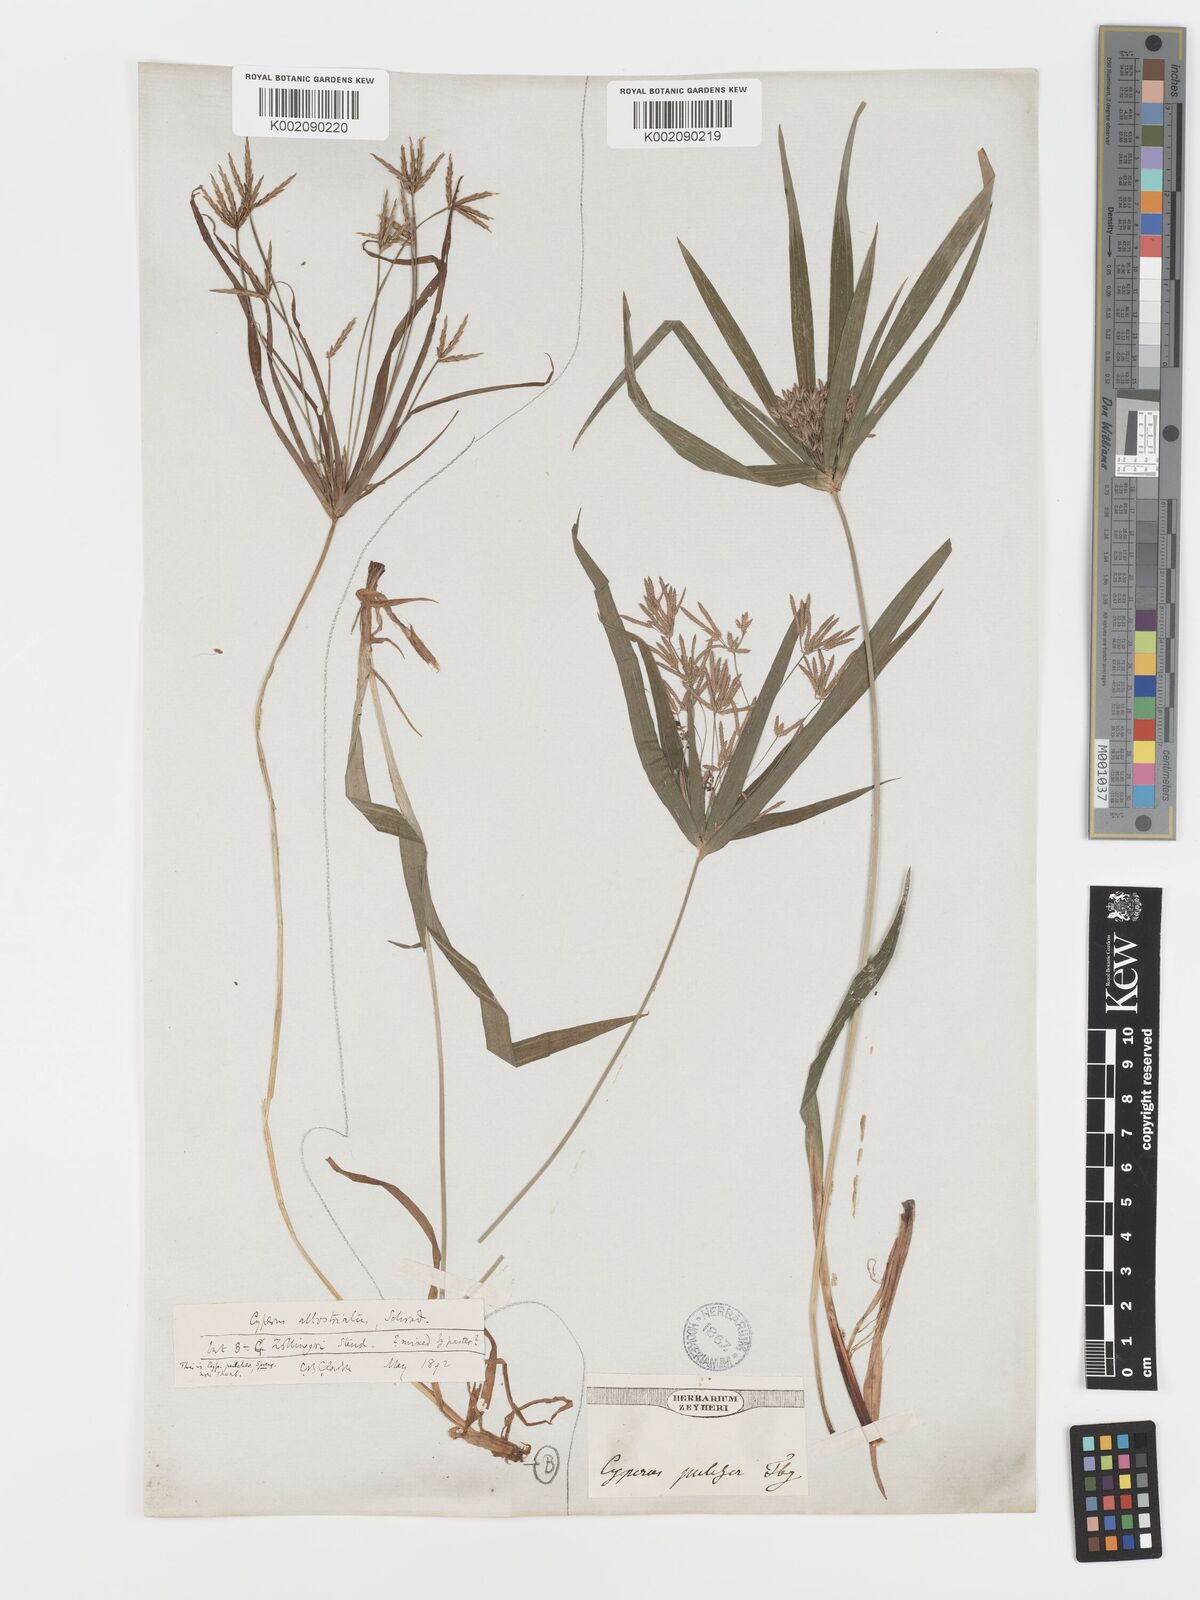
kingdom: Plantae
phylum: Tracheophyta
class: Liliopsida
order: Poales
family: Cyperaceae
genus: Cyperus
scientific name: Cyperus albostriatus
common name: Dwarf umbrella-grass
